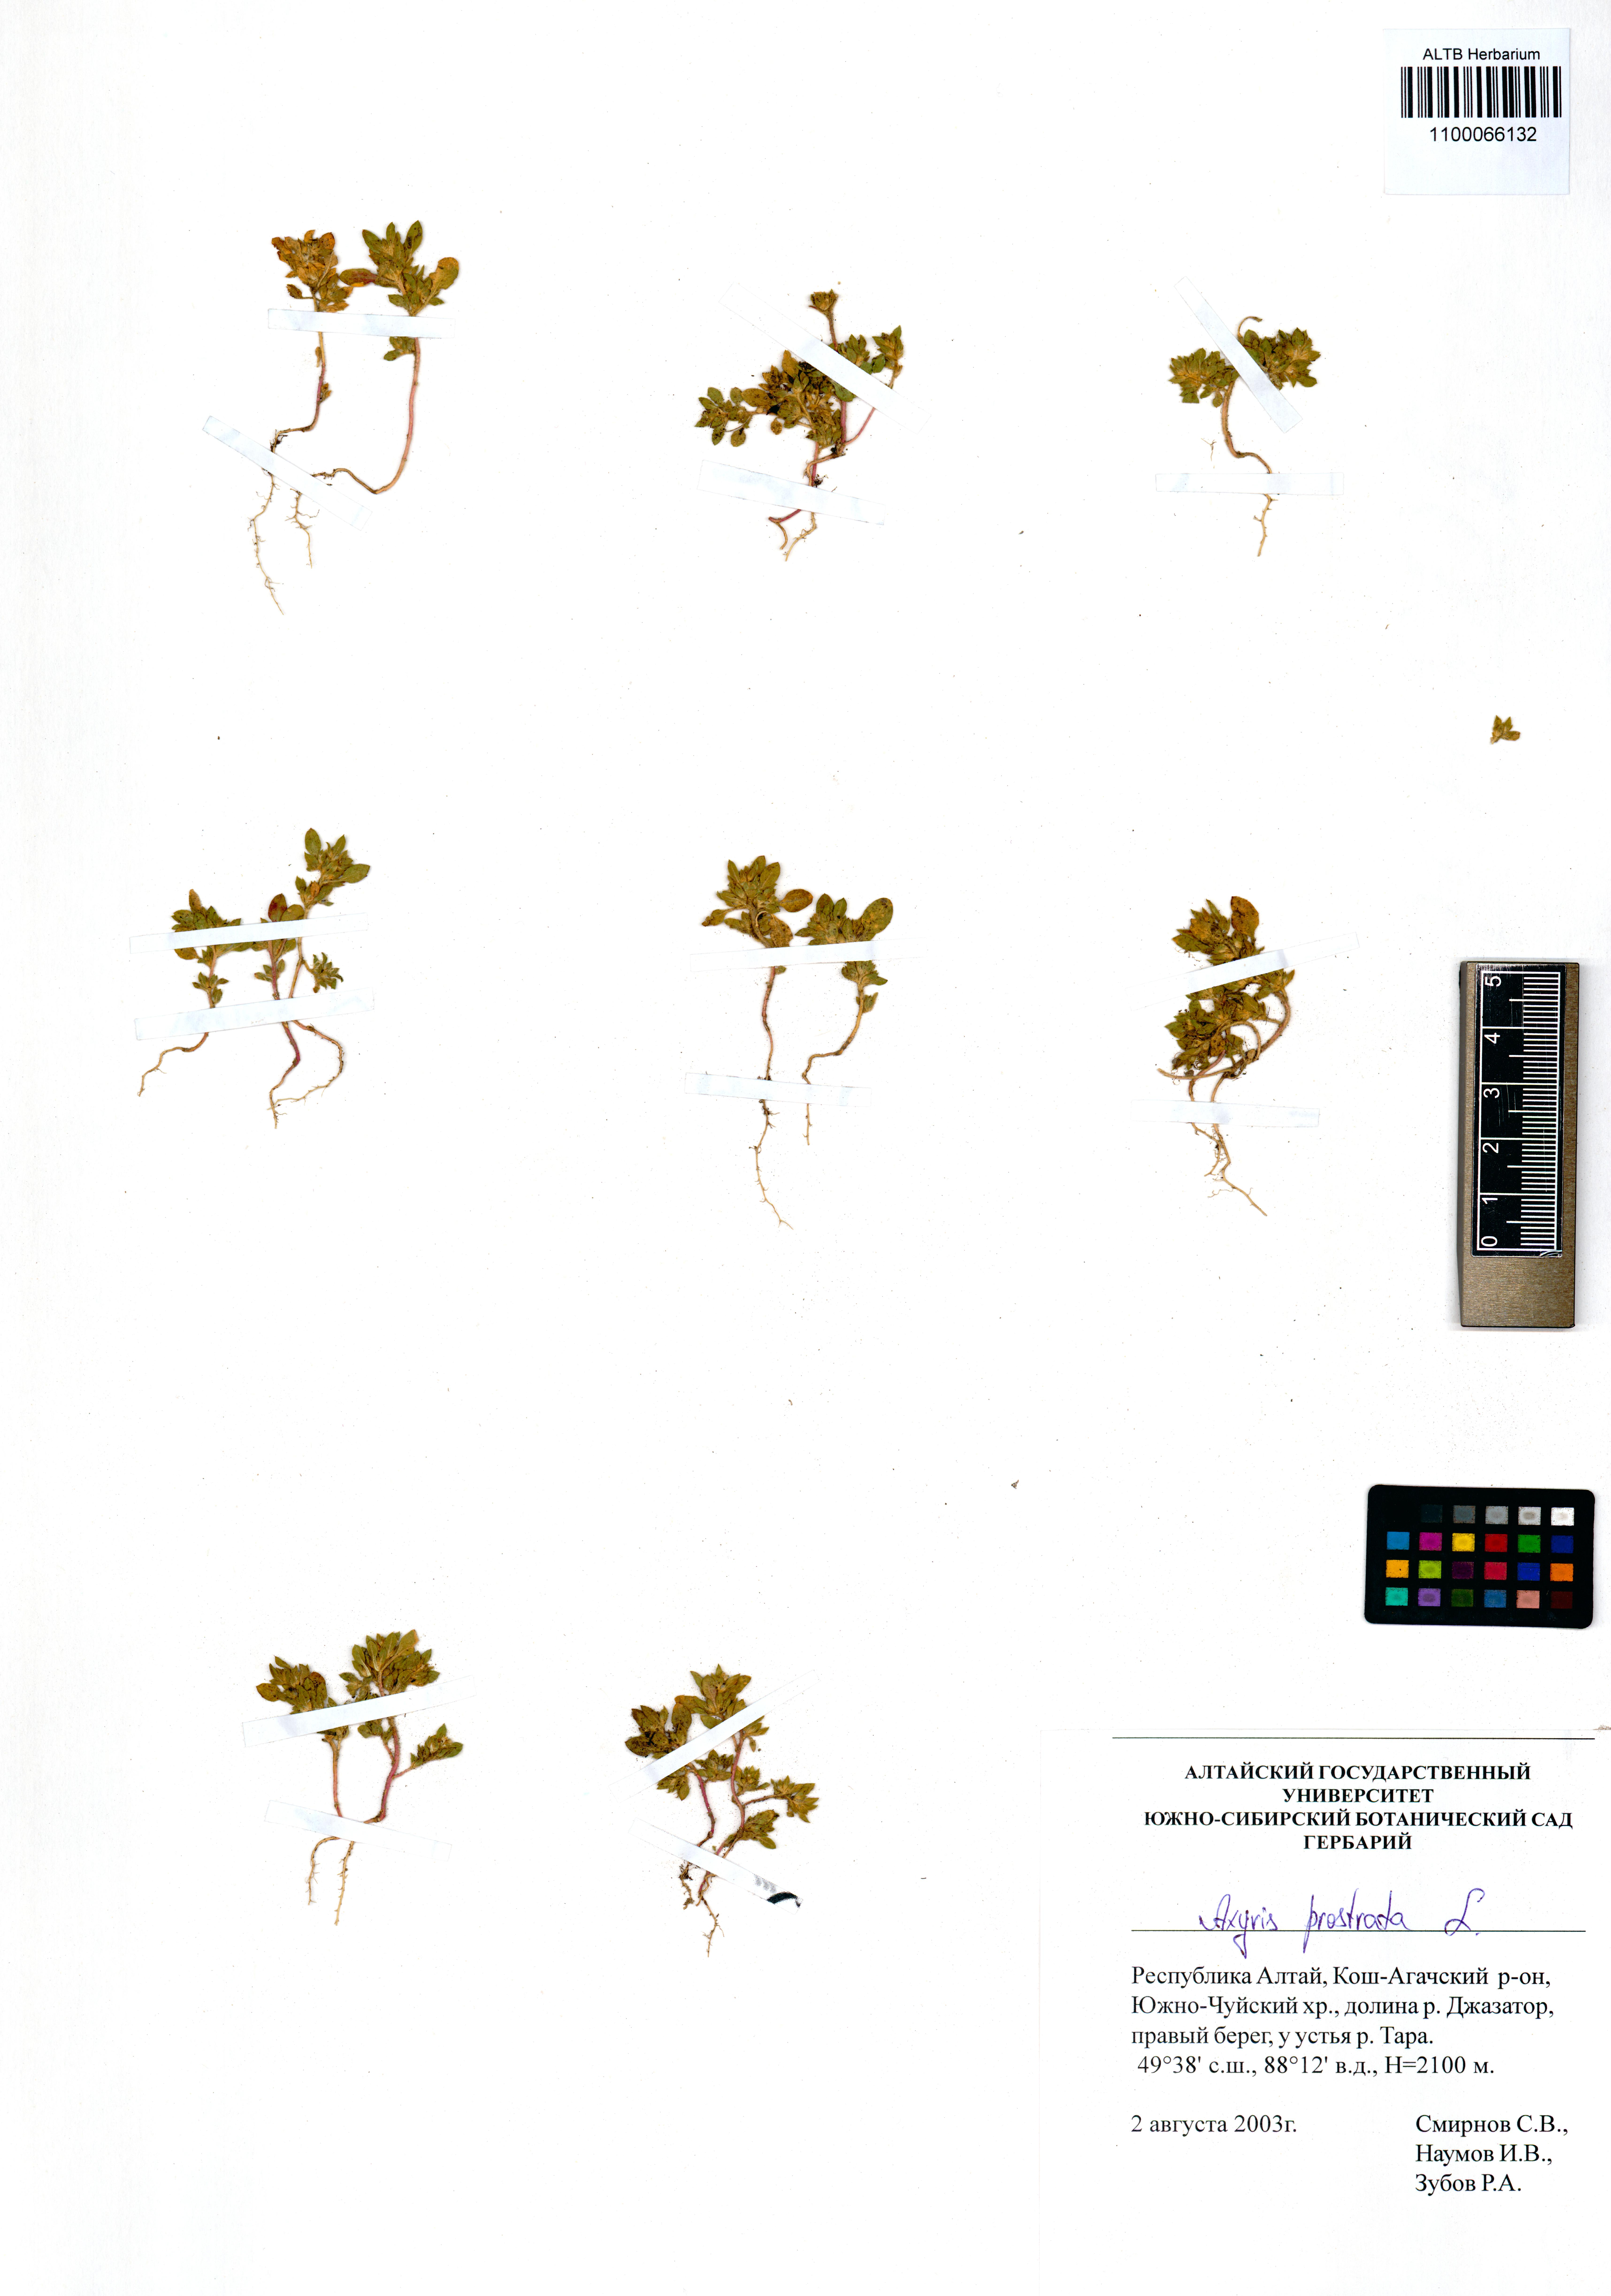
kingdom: Plantae
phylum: Tracheophyta
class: Magnoliopsida
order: Caryophyllales
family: Amaranthaceae
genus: Axyris
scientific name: Axyris prostrata
